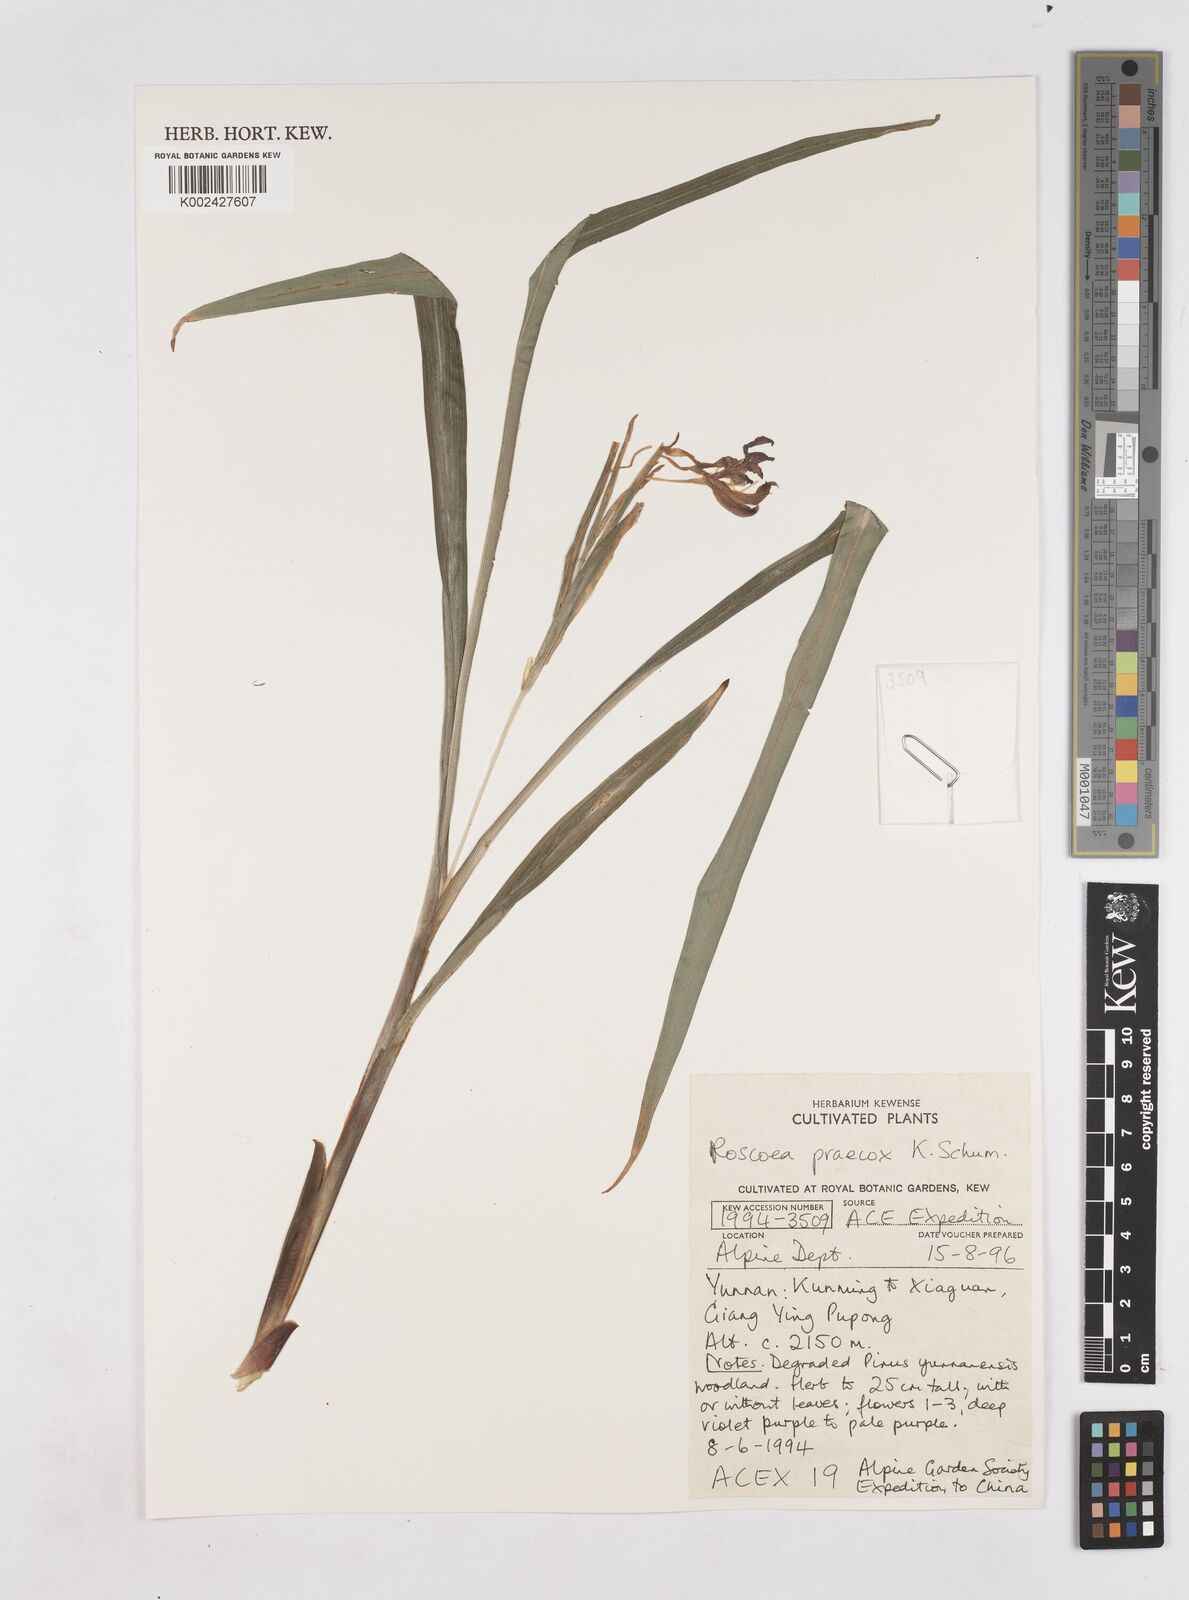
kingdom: Plantae
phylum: Tracheophyta
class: Liliopsida
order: Zingiberales
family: Zingiberaceae
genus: Roscoea
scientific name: Roscoea praecox
